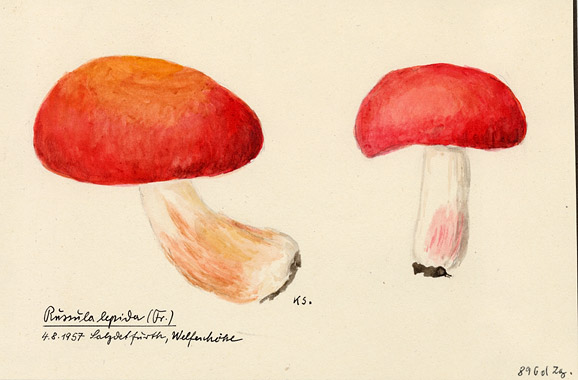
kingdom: Fungi
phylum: Basidiomycota
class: Agaricomycetes
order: Russulales
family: Russulaceae
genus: Russula
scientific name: Russula rosea
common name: Rosy brittlegill
